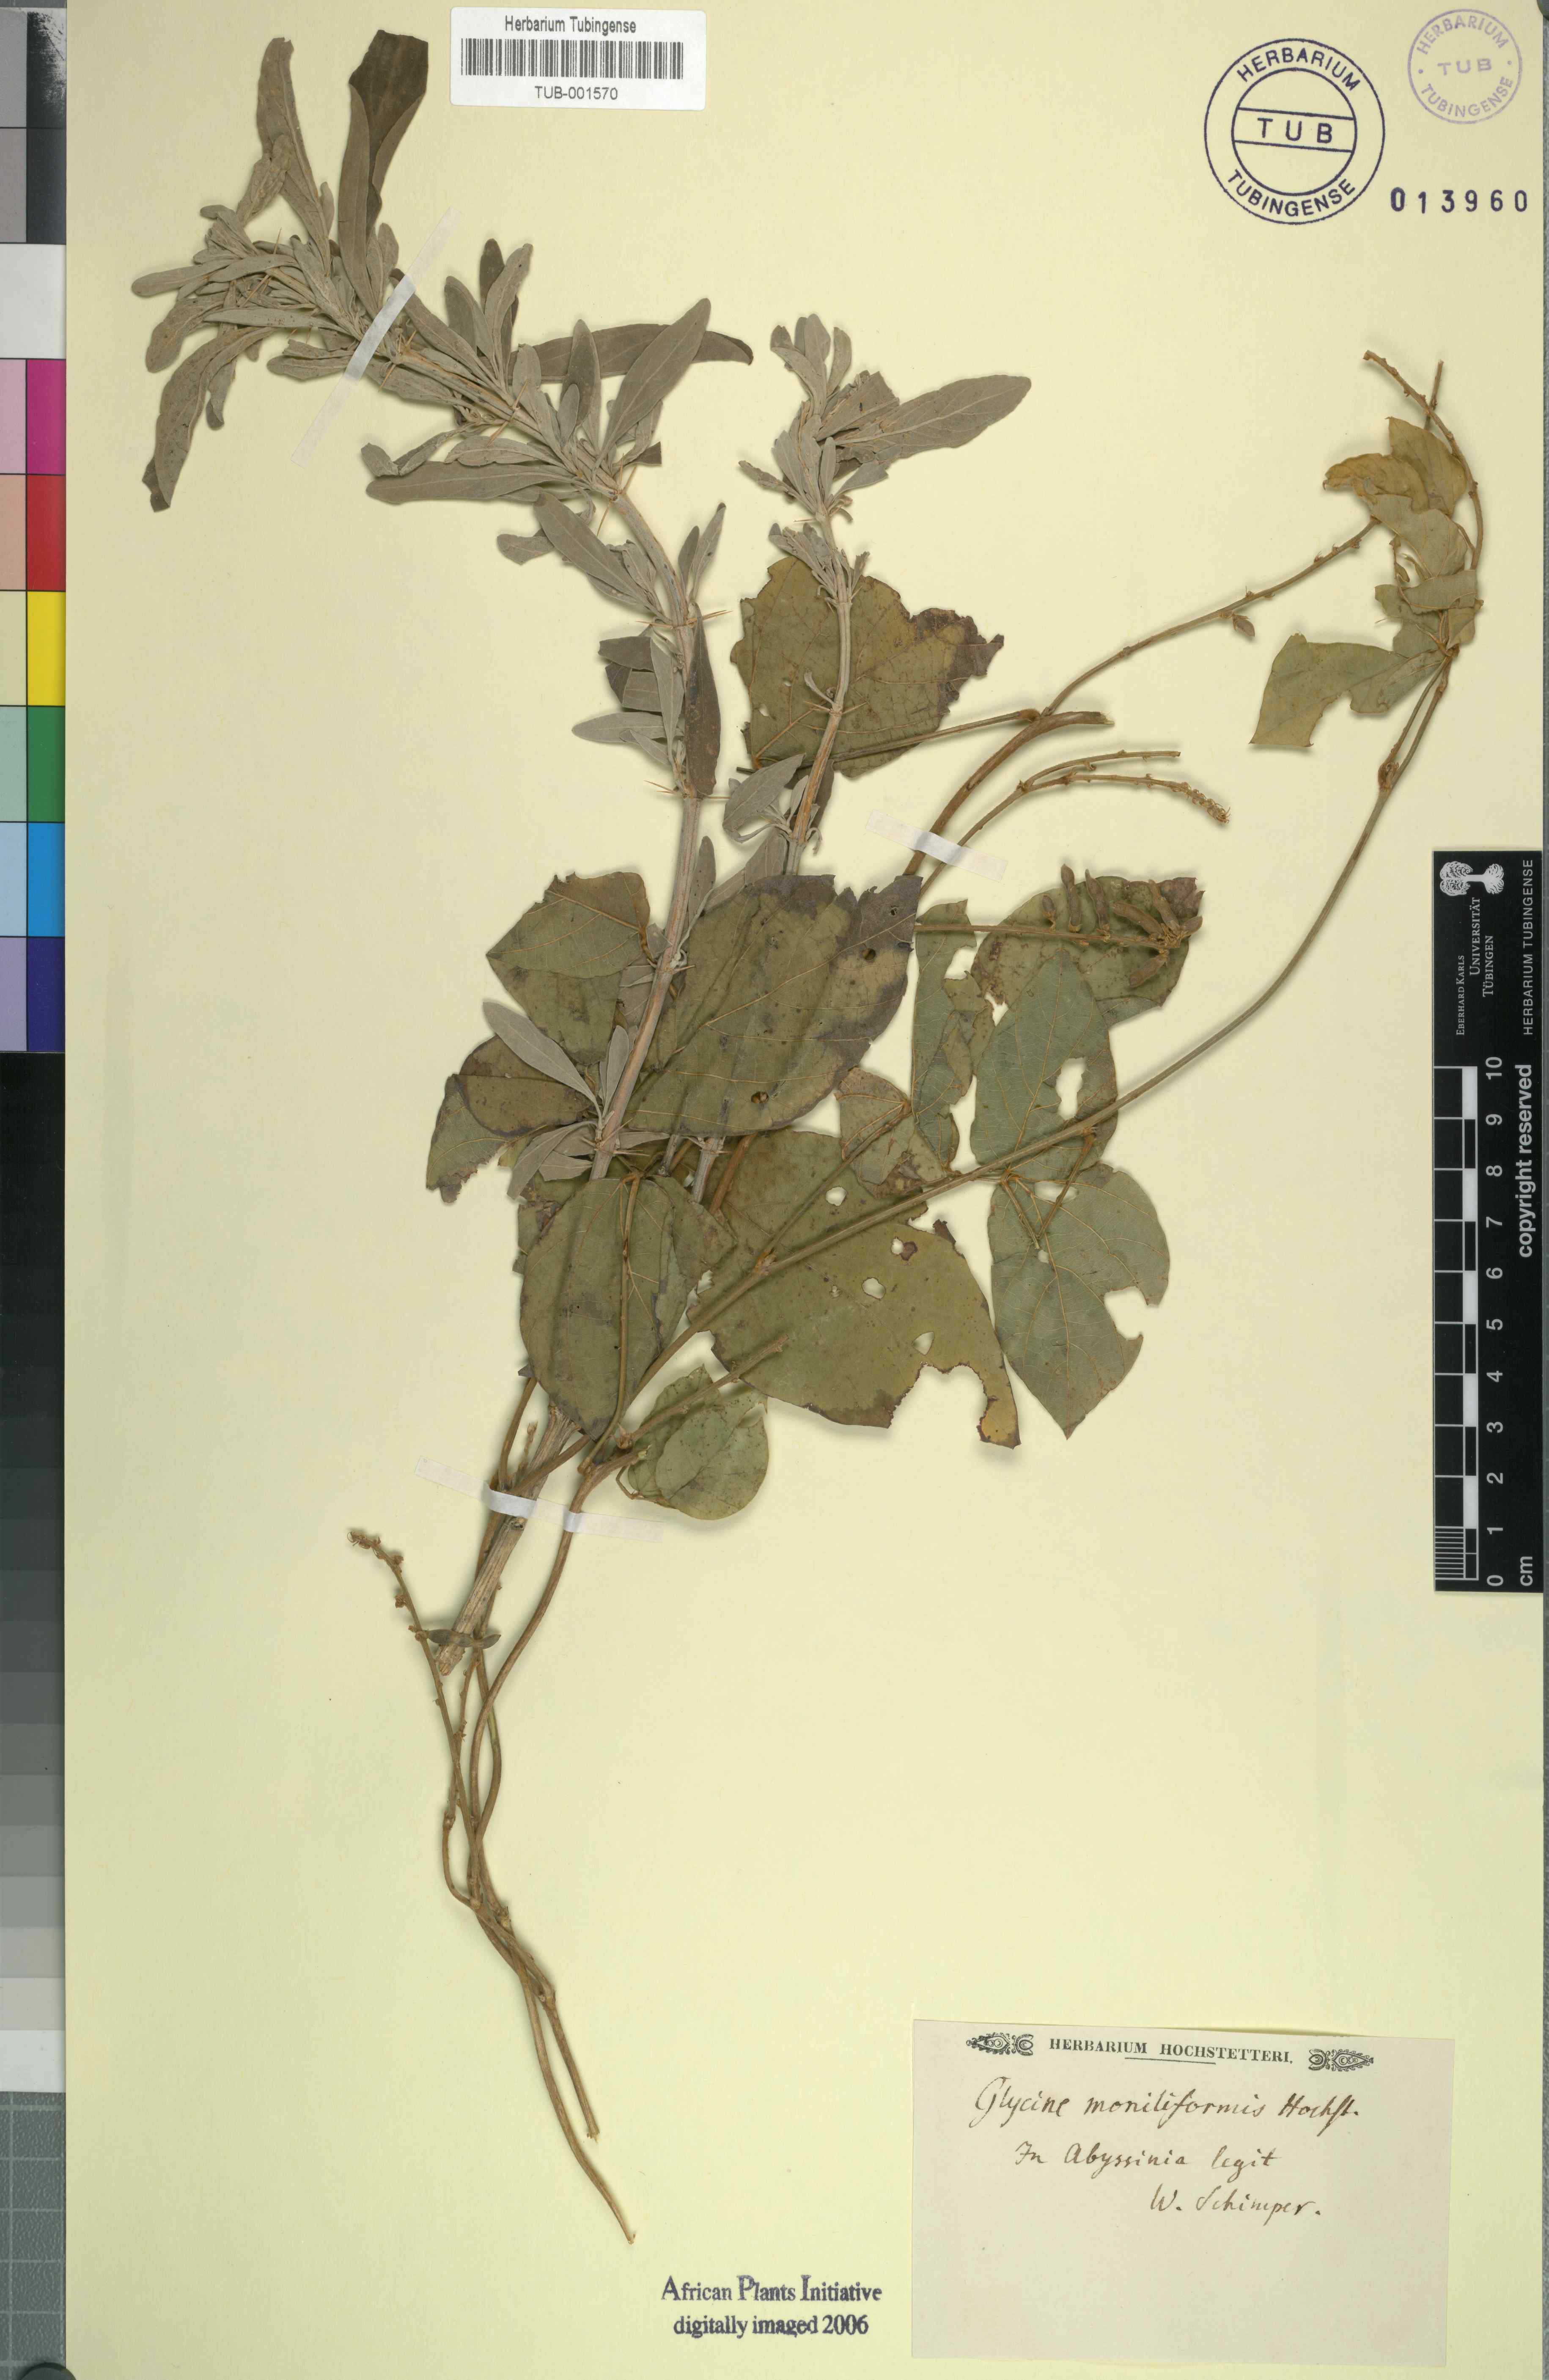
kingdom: Plantae
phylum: Tracheophyta
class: Magnoliopsida
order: Fabales
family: Fabaceae
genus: Pueraria
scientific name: Pueraria montana
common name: Kudzu
